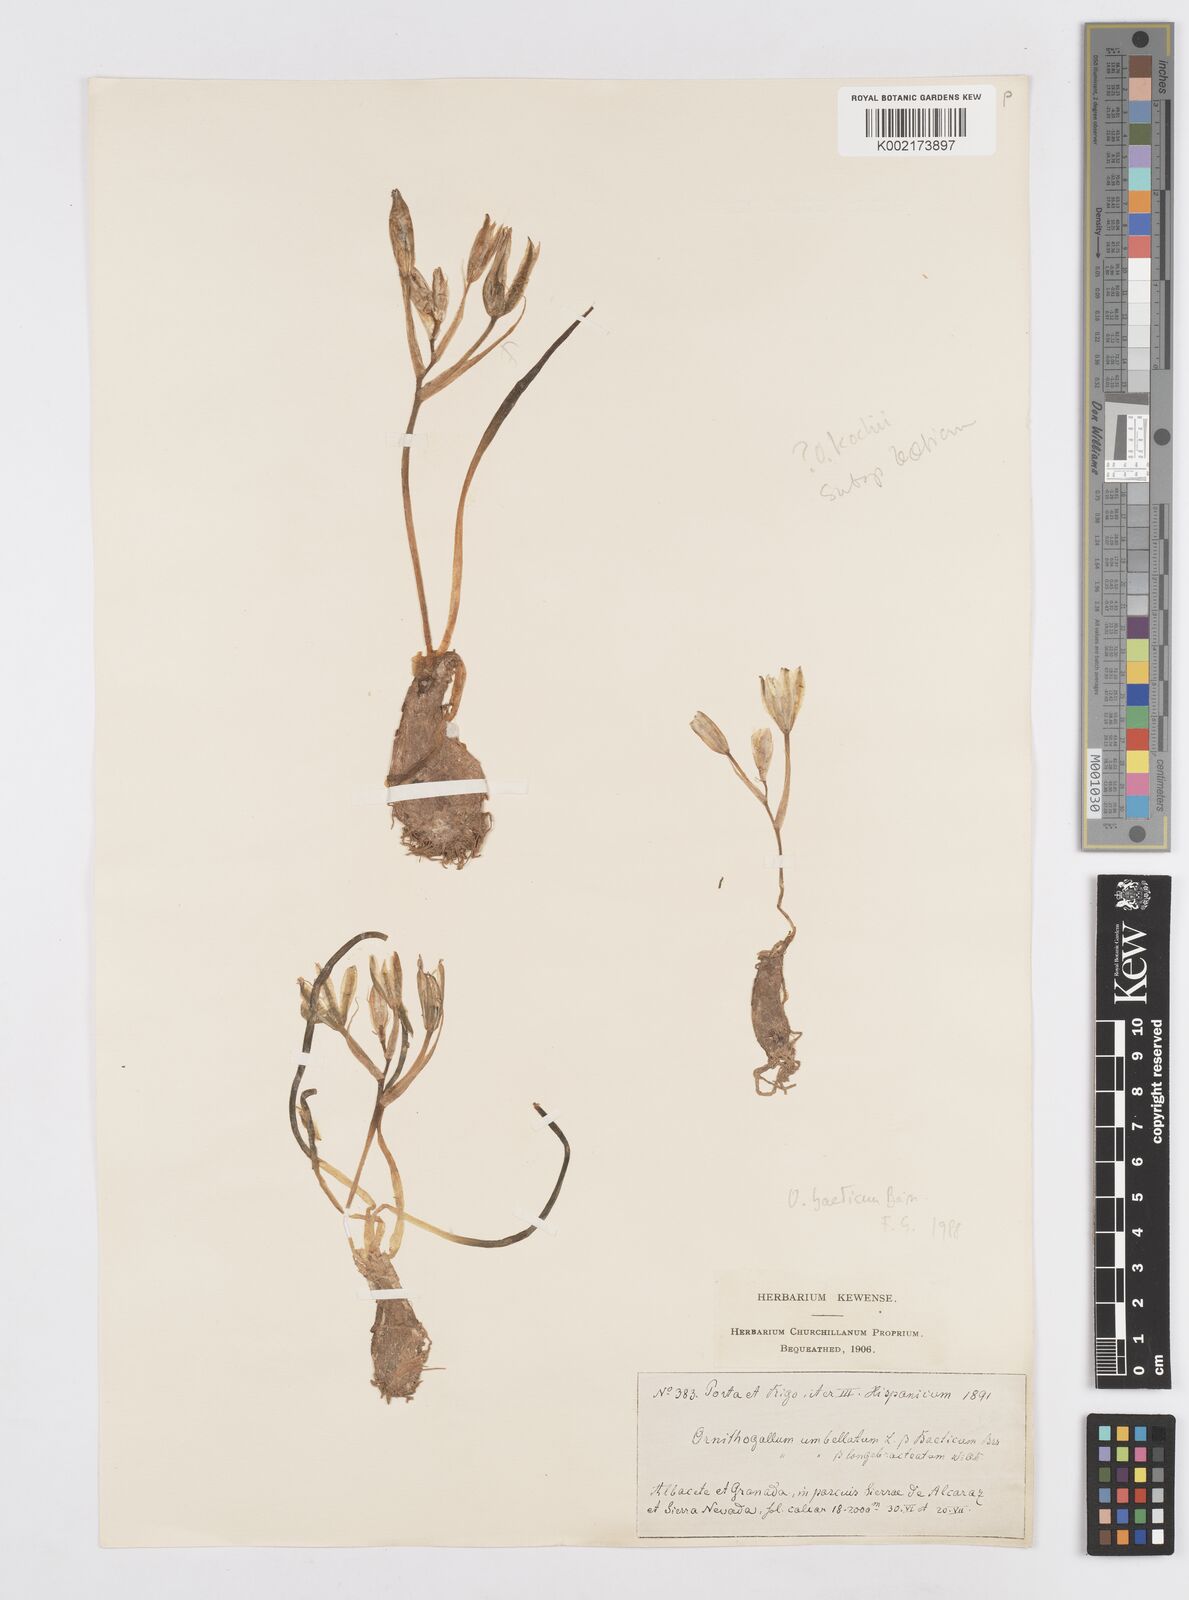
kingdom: Plantae
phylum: Tracheophyta
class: Liliopsida
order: Asparagales
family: Asparagaceae
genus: Ornithogalum
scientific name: Ornithogalum orthophyllum
